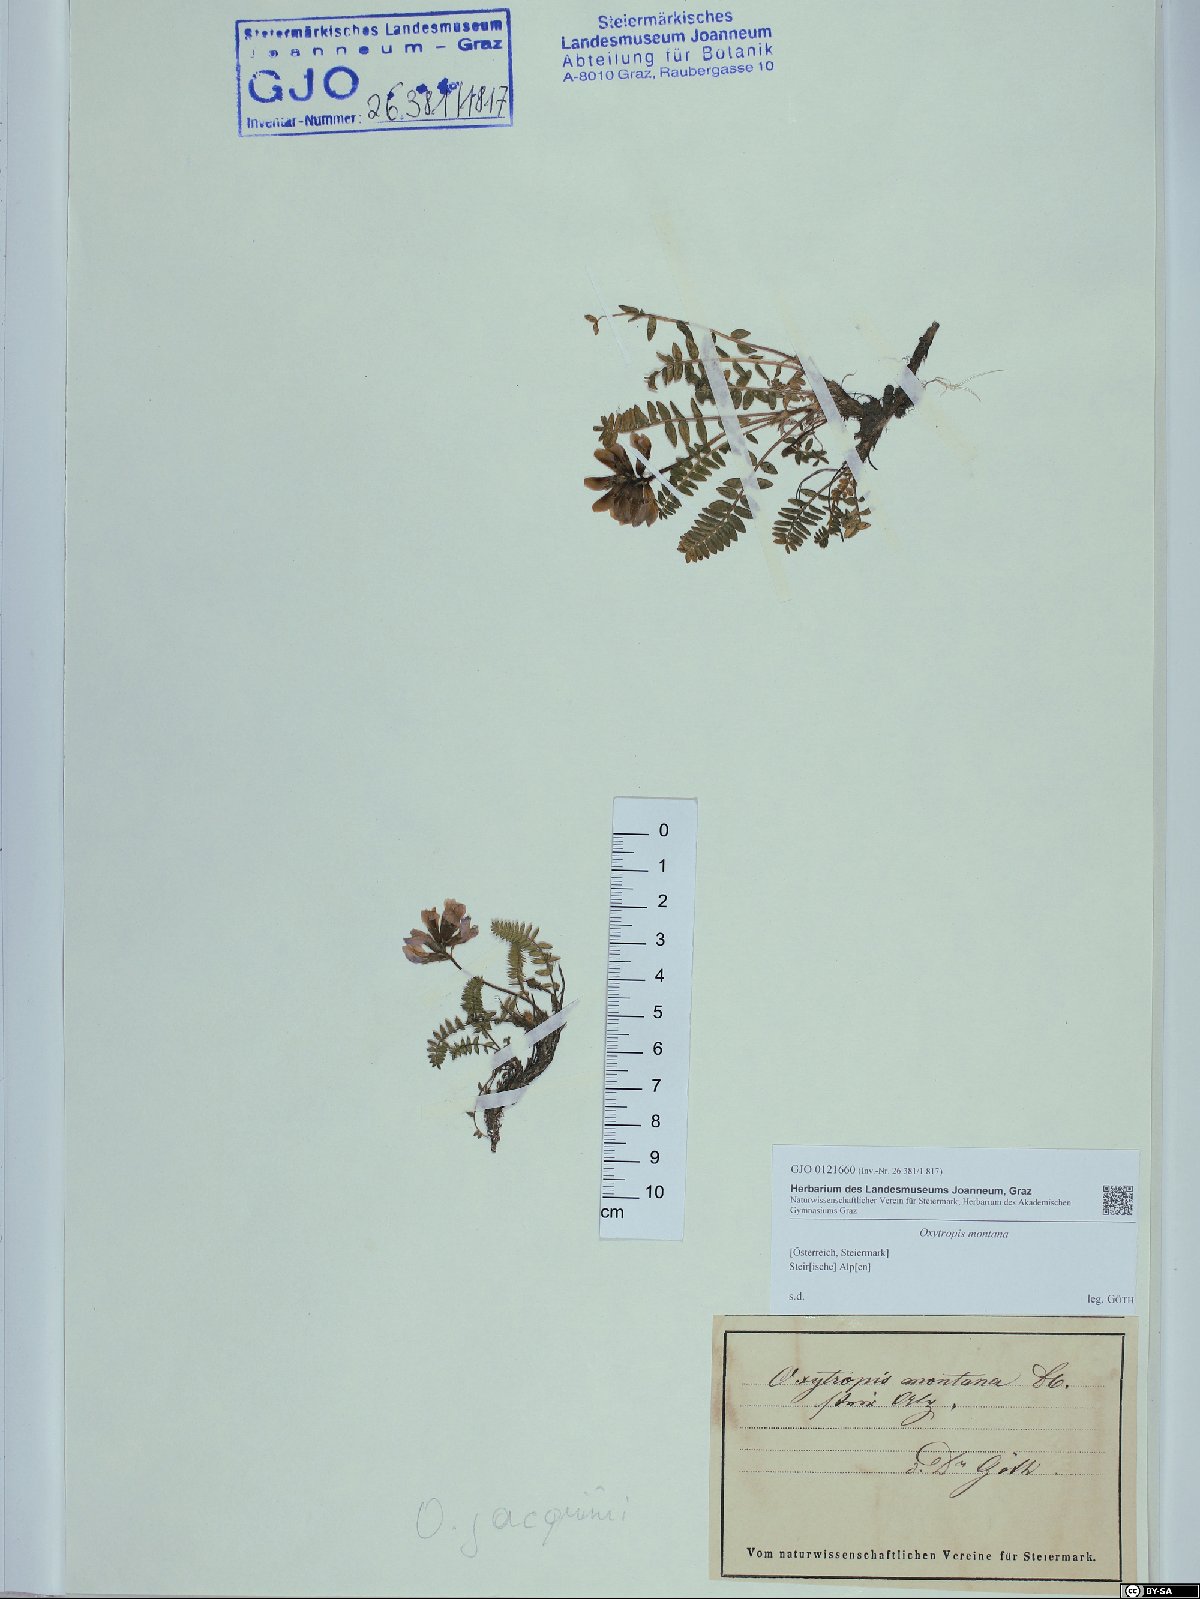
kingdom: Plantae
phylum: Tracheophyta
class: Magnoliopsida
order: Fabales
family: Fabaceae
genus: Oxytropis
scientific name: Oxytropis montana
